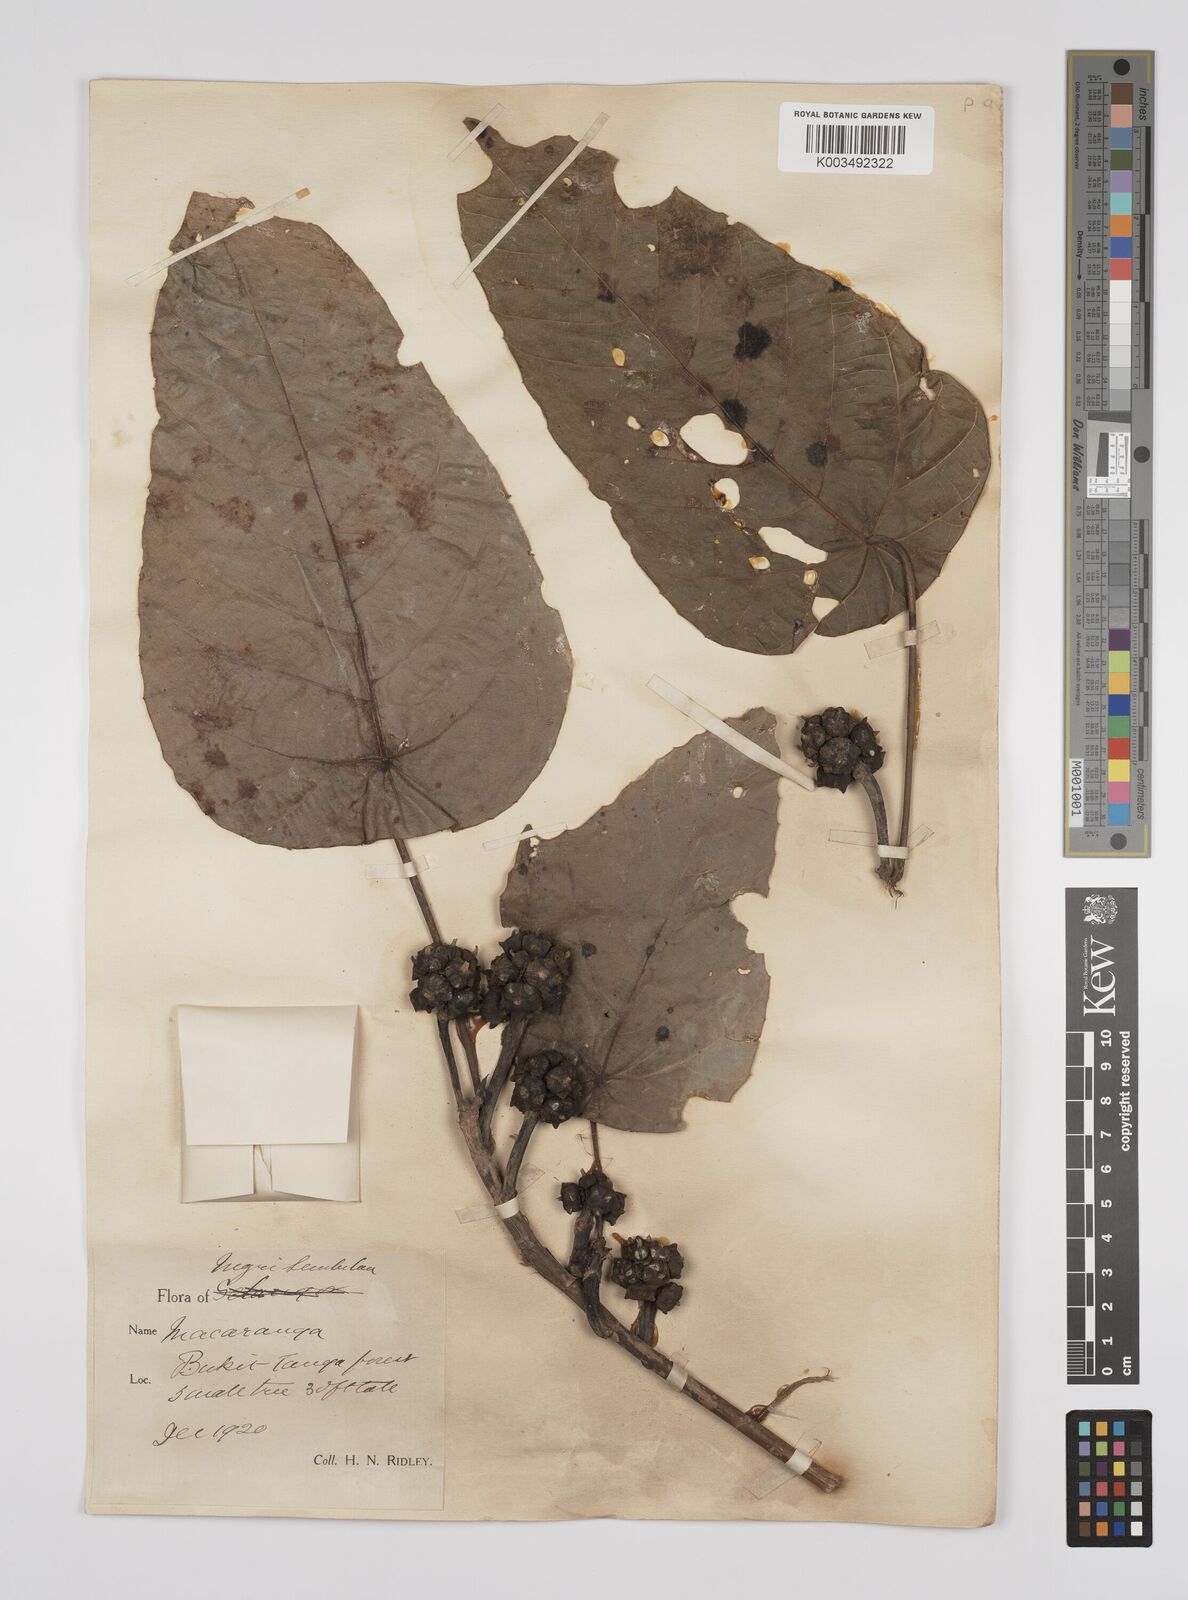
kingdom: Plantae
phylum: Tracheophyta
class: Magnoliopsida
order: Malpighiales
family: Euphorbiaceae
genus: Macaranga
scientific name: Macaranga hullettii
